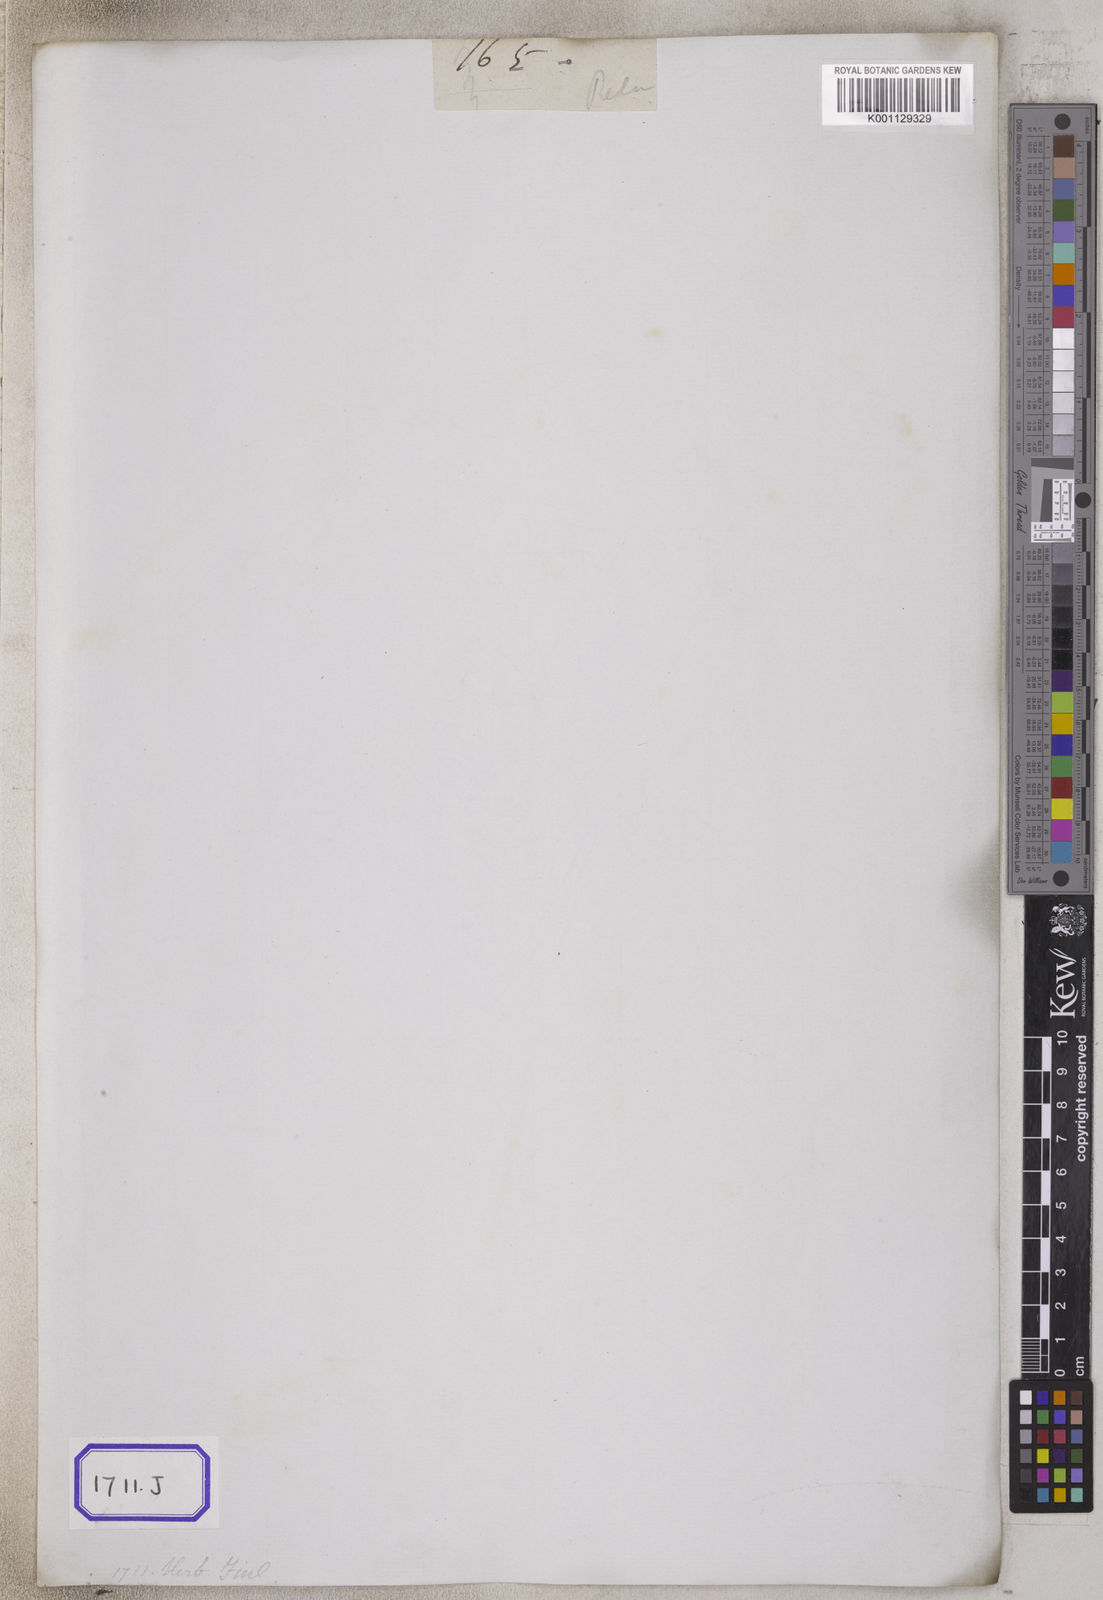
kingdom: Plantae
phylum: Tracheophyta
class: Magnoliopsida
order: Caryophyllales
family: Polygonaceae
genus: Persicaria
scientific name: Persicaria glabra
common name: Denseflower knotweed
